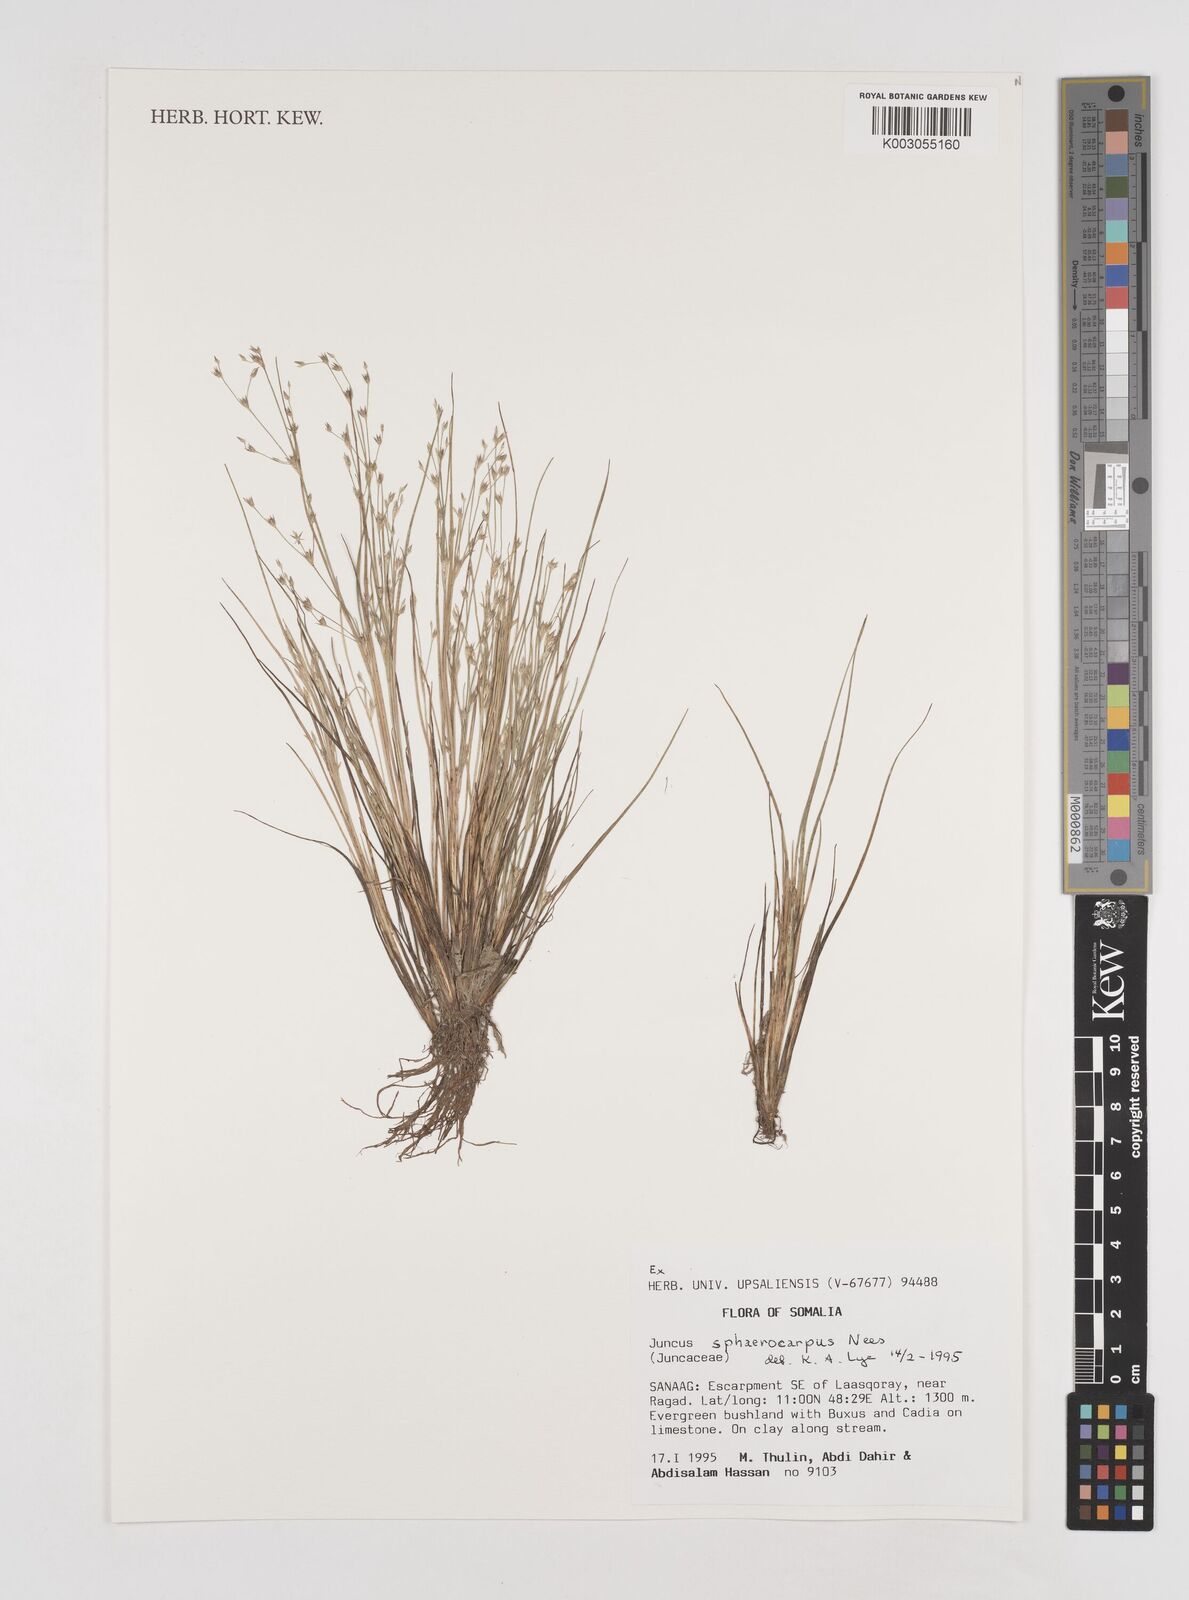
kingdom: Plantae
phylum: Tracheophyta
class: Liliopsida
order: Poales
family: Juncaceae
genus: Juncus
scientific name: Juncus sphaerocarpus
